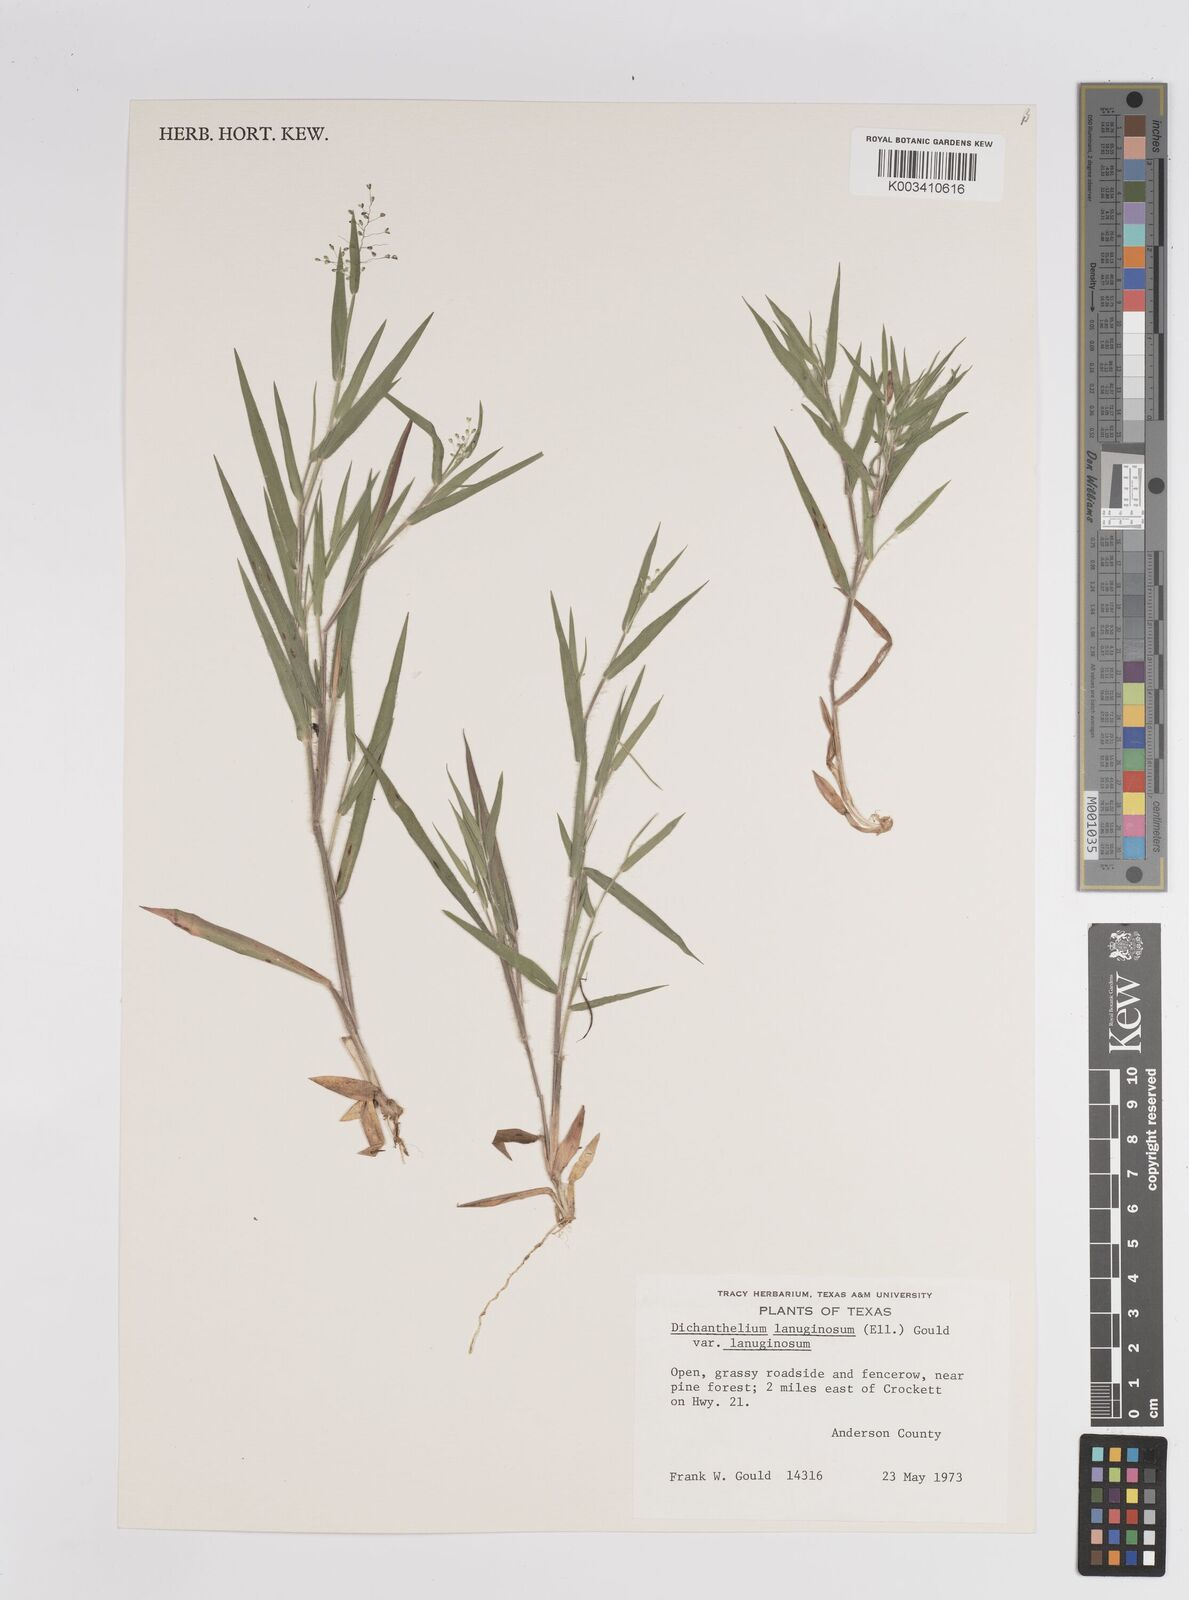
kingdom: Plantae
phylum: Tracheophyta
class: Liliopsida
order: Poales
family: Poaceae
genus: Dichanthelium
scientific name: Dichanthelium lanuginosum
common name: Woolly panicgrass
